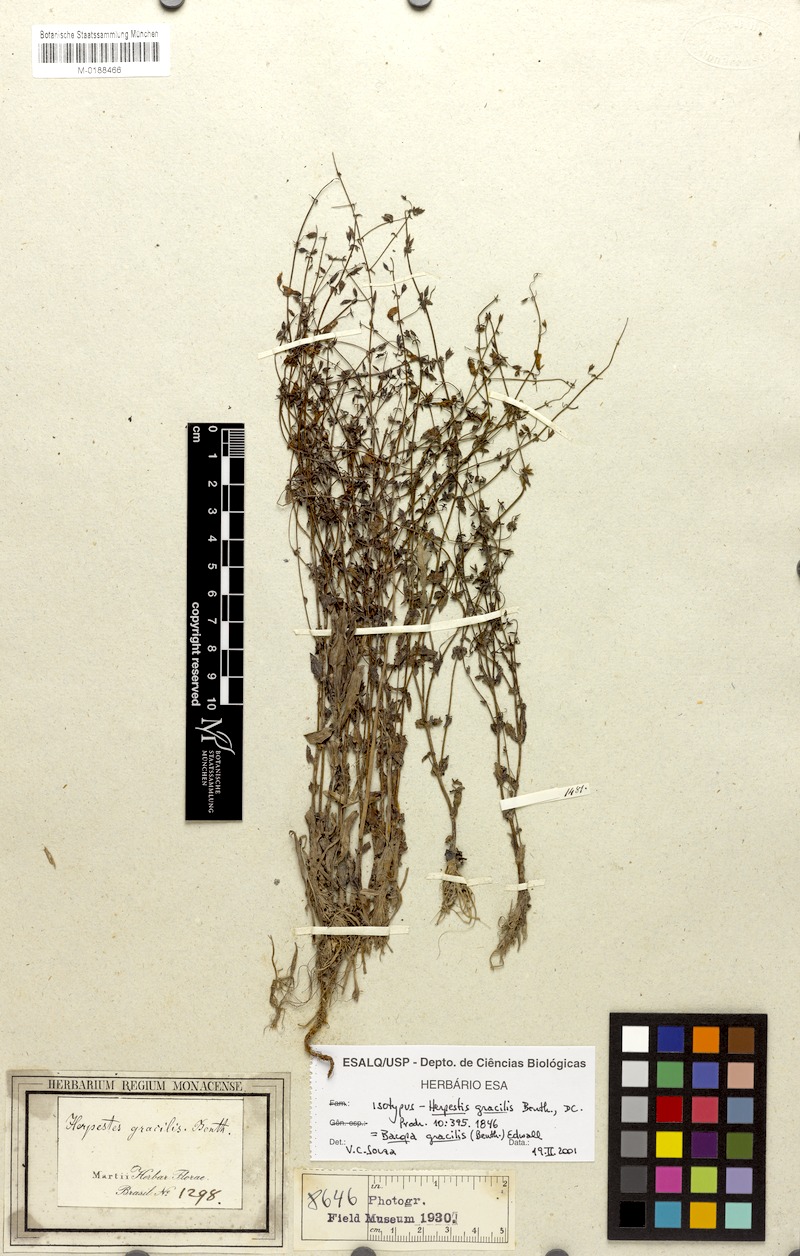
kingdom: Plantae
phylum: Tracheophyta
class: Magnoliopsida
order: Lamiales
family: Plantaginaceae
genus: Bacopa
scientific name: Bacopa gracilis
